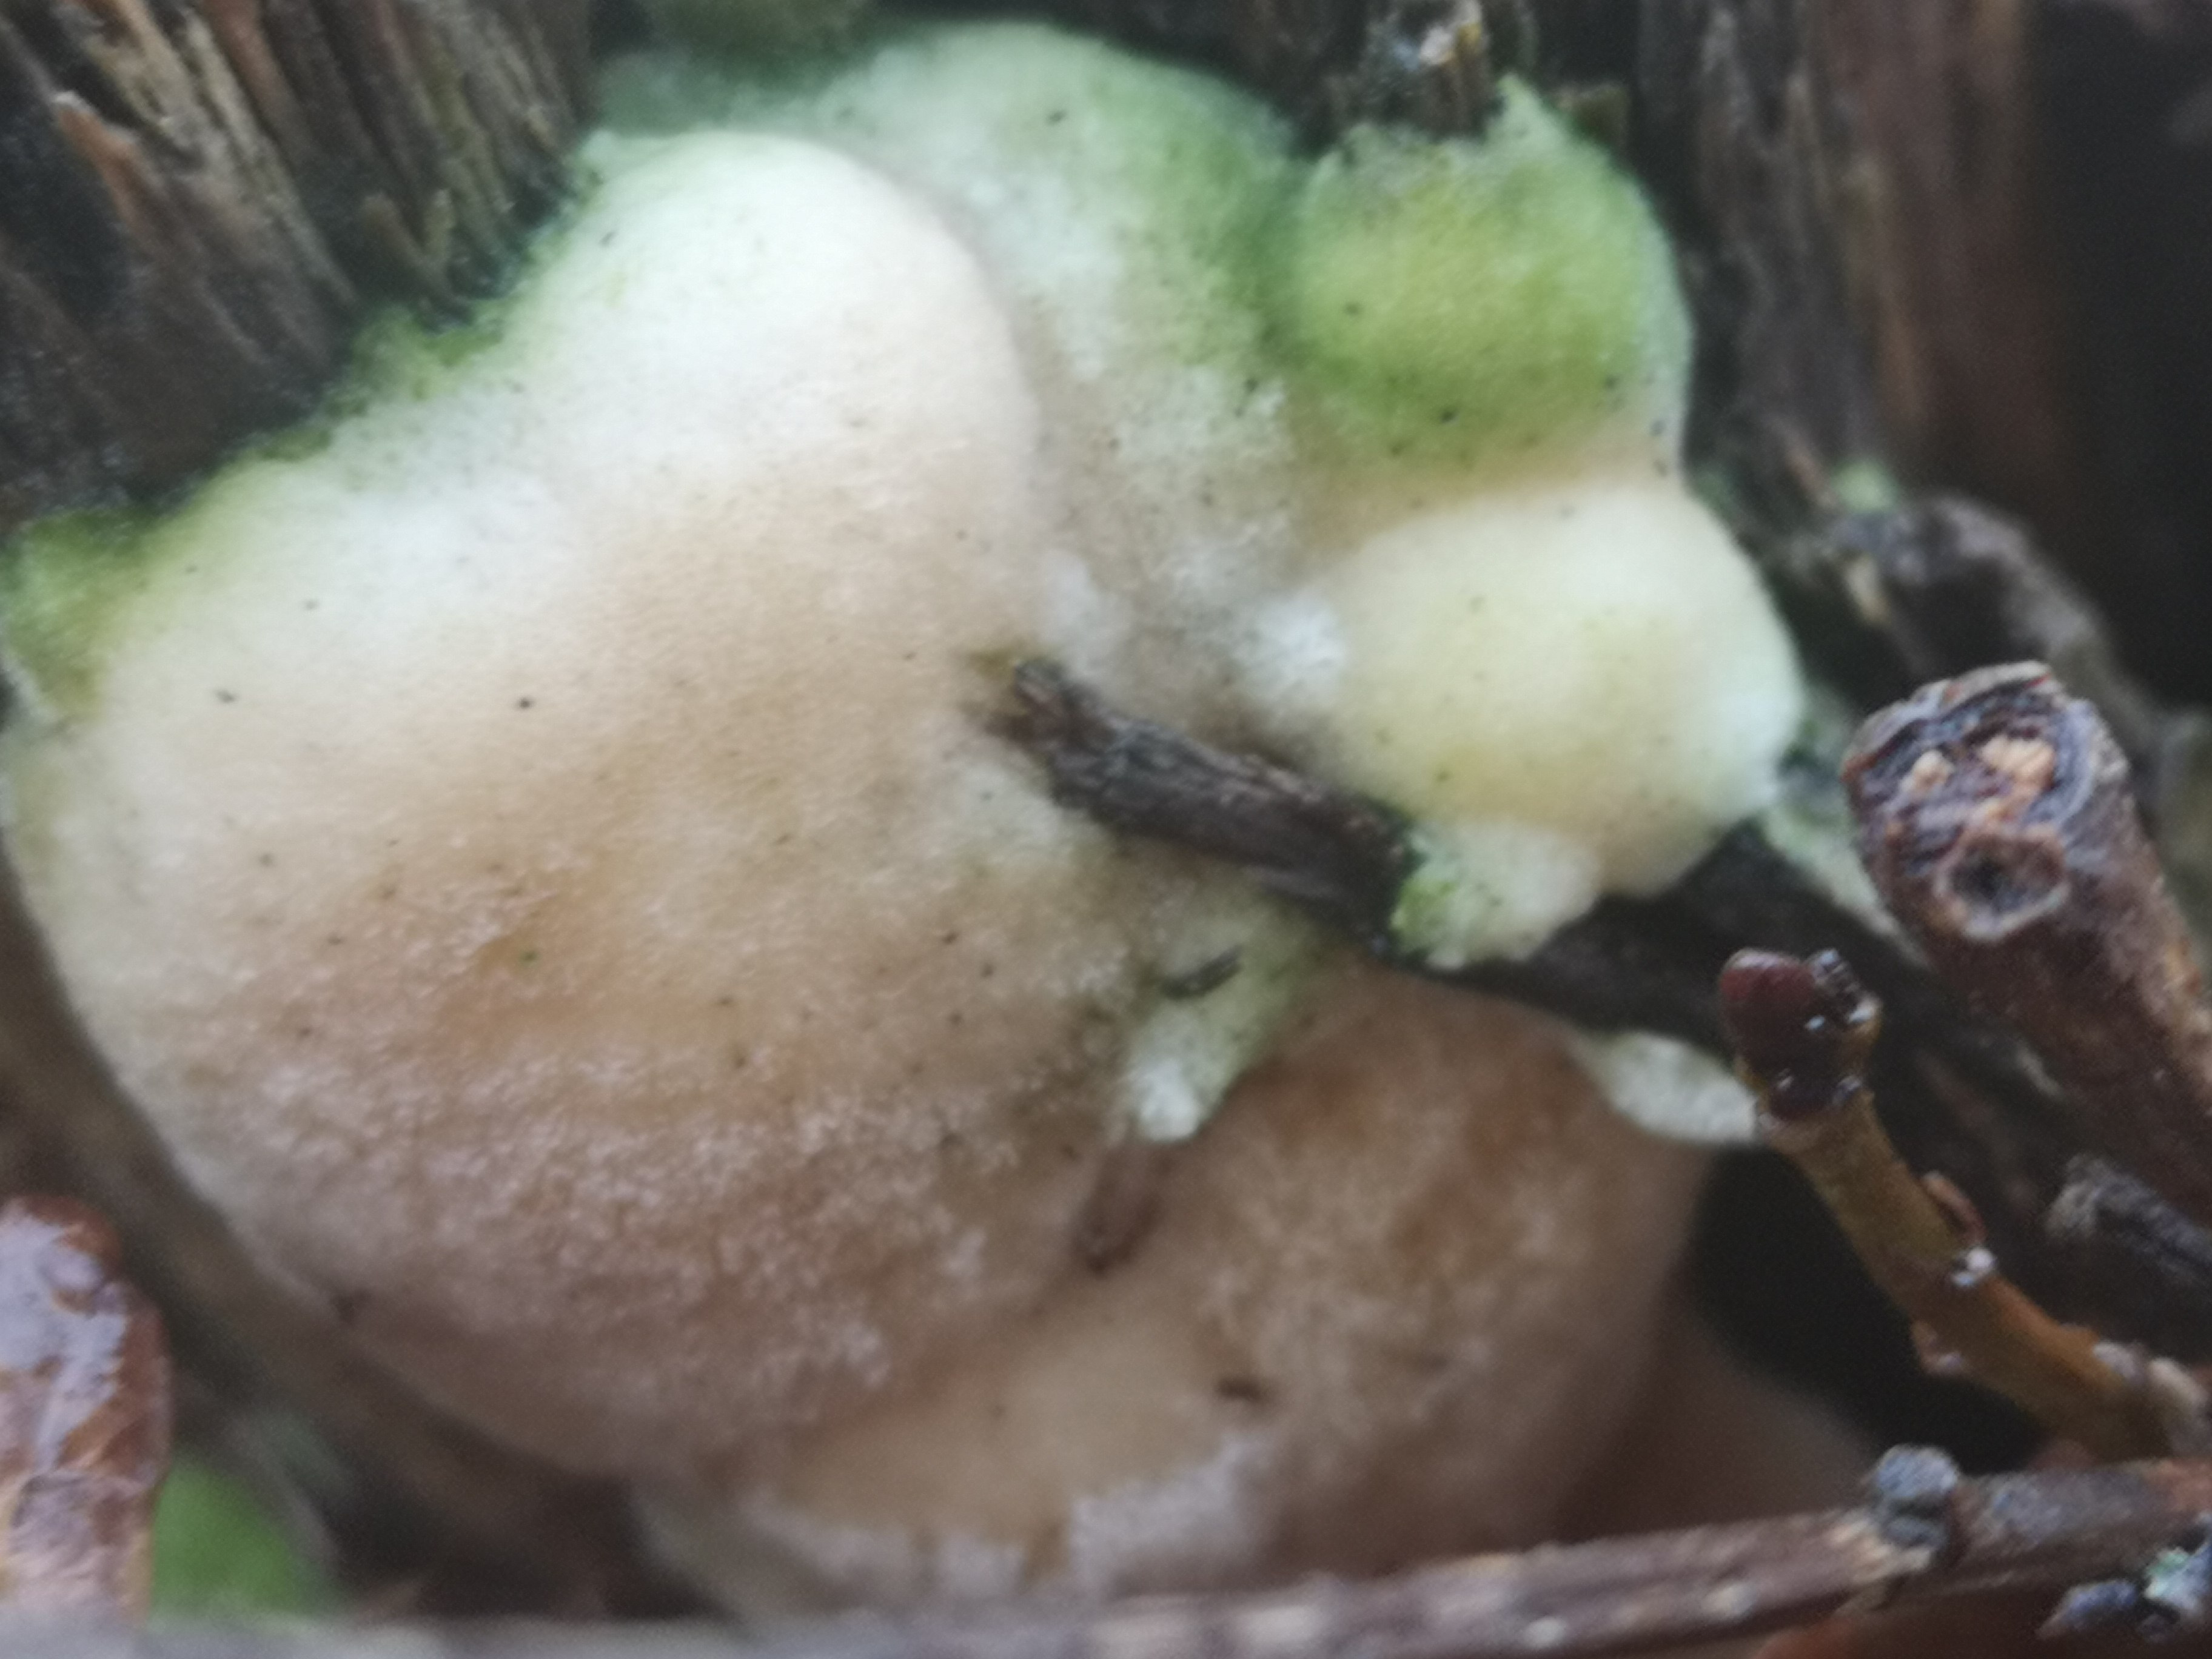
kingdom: Fungi
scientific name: Fungi
